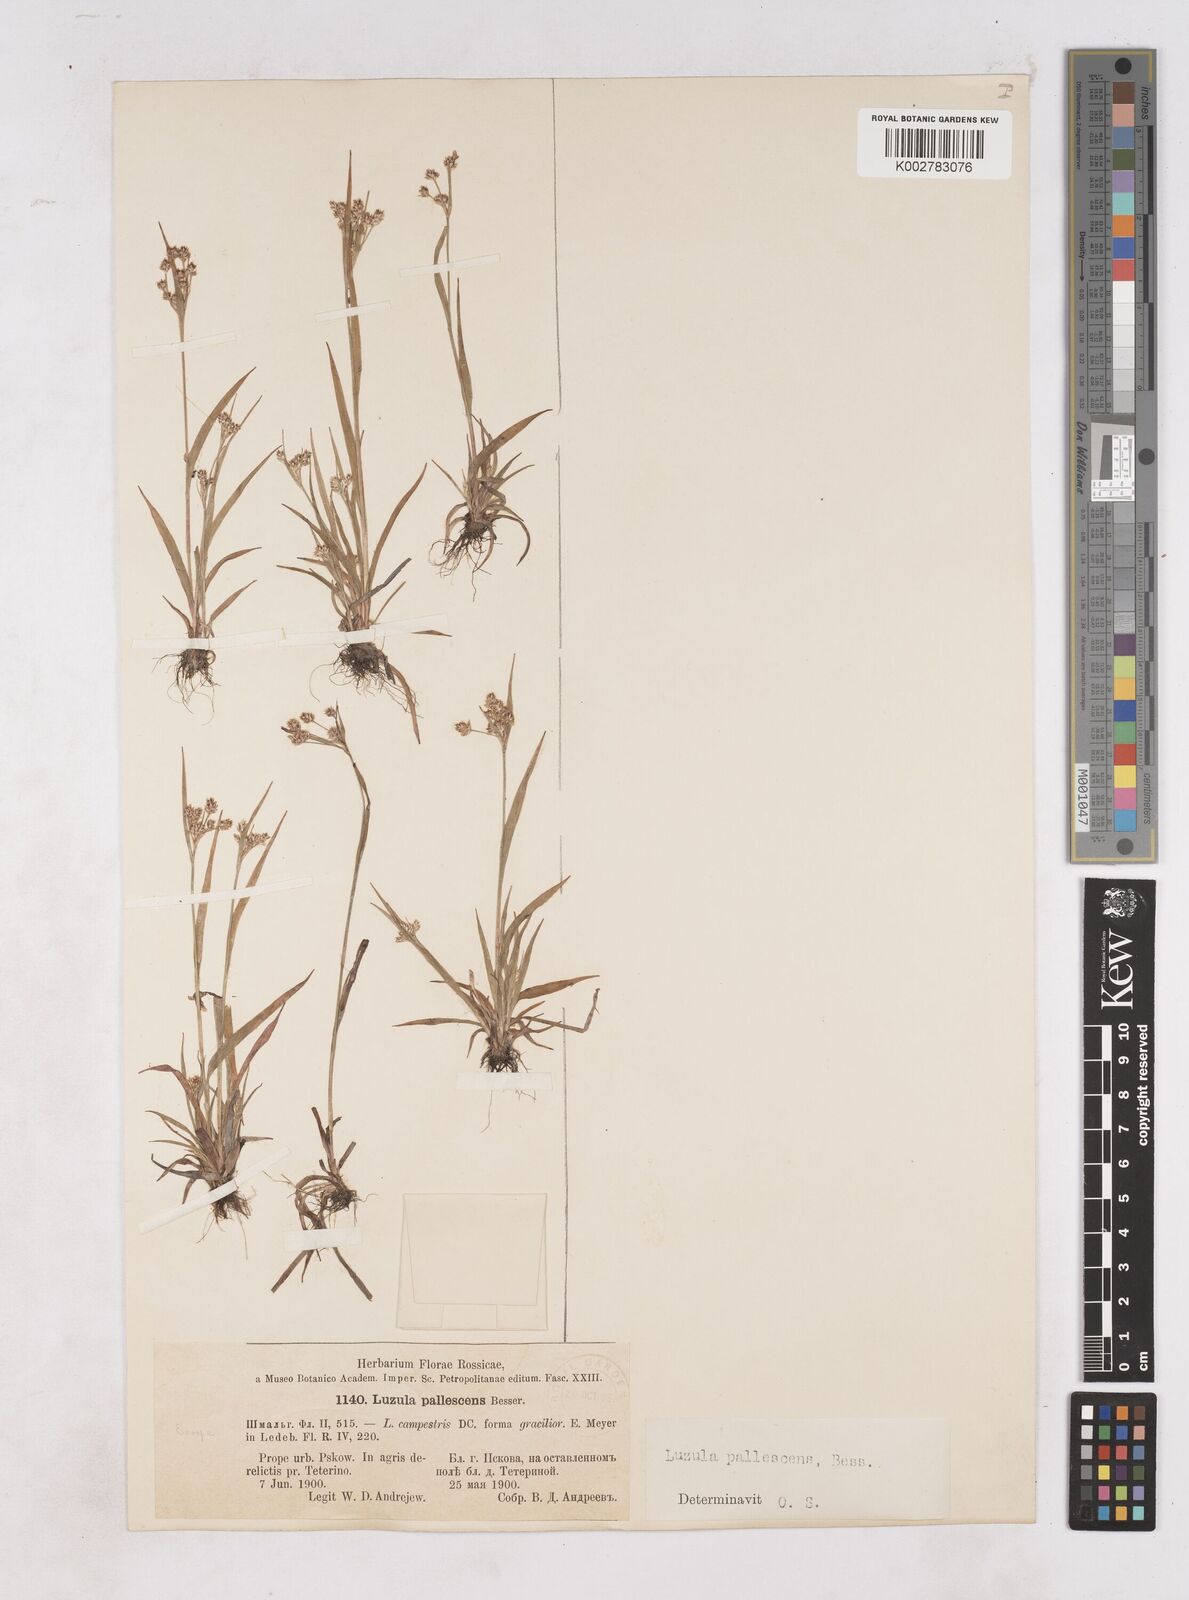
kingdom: Plantae
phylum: Tracheophyta
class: Liliopsida
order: Poales
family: Juncaceae
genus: Luzula
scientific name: Luzula pallescens
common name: Fen wood-rush
